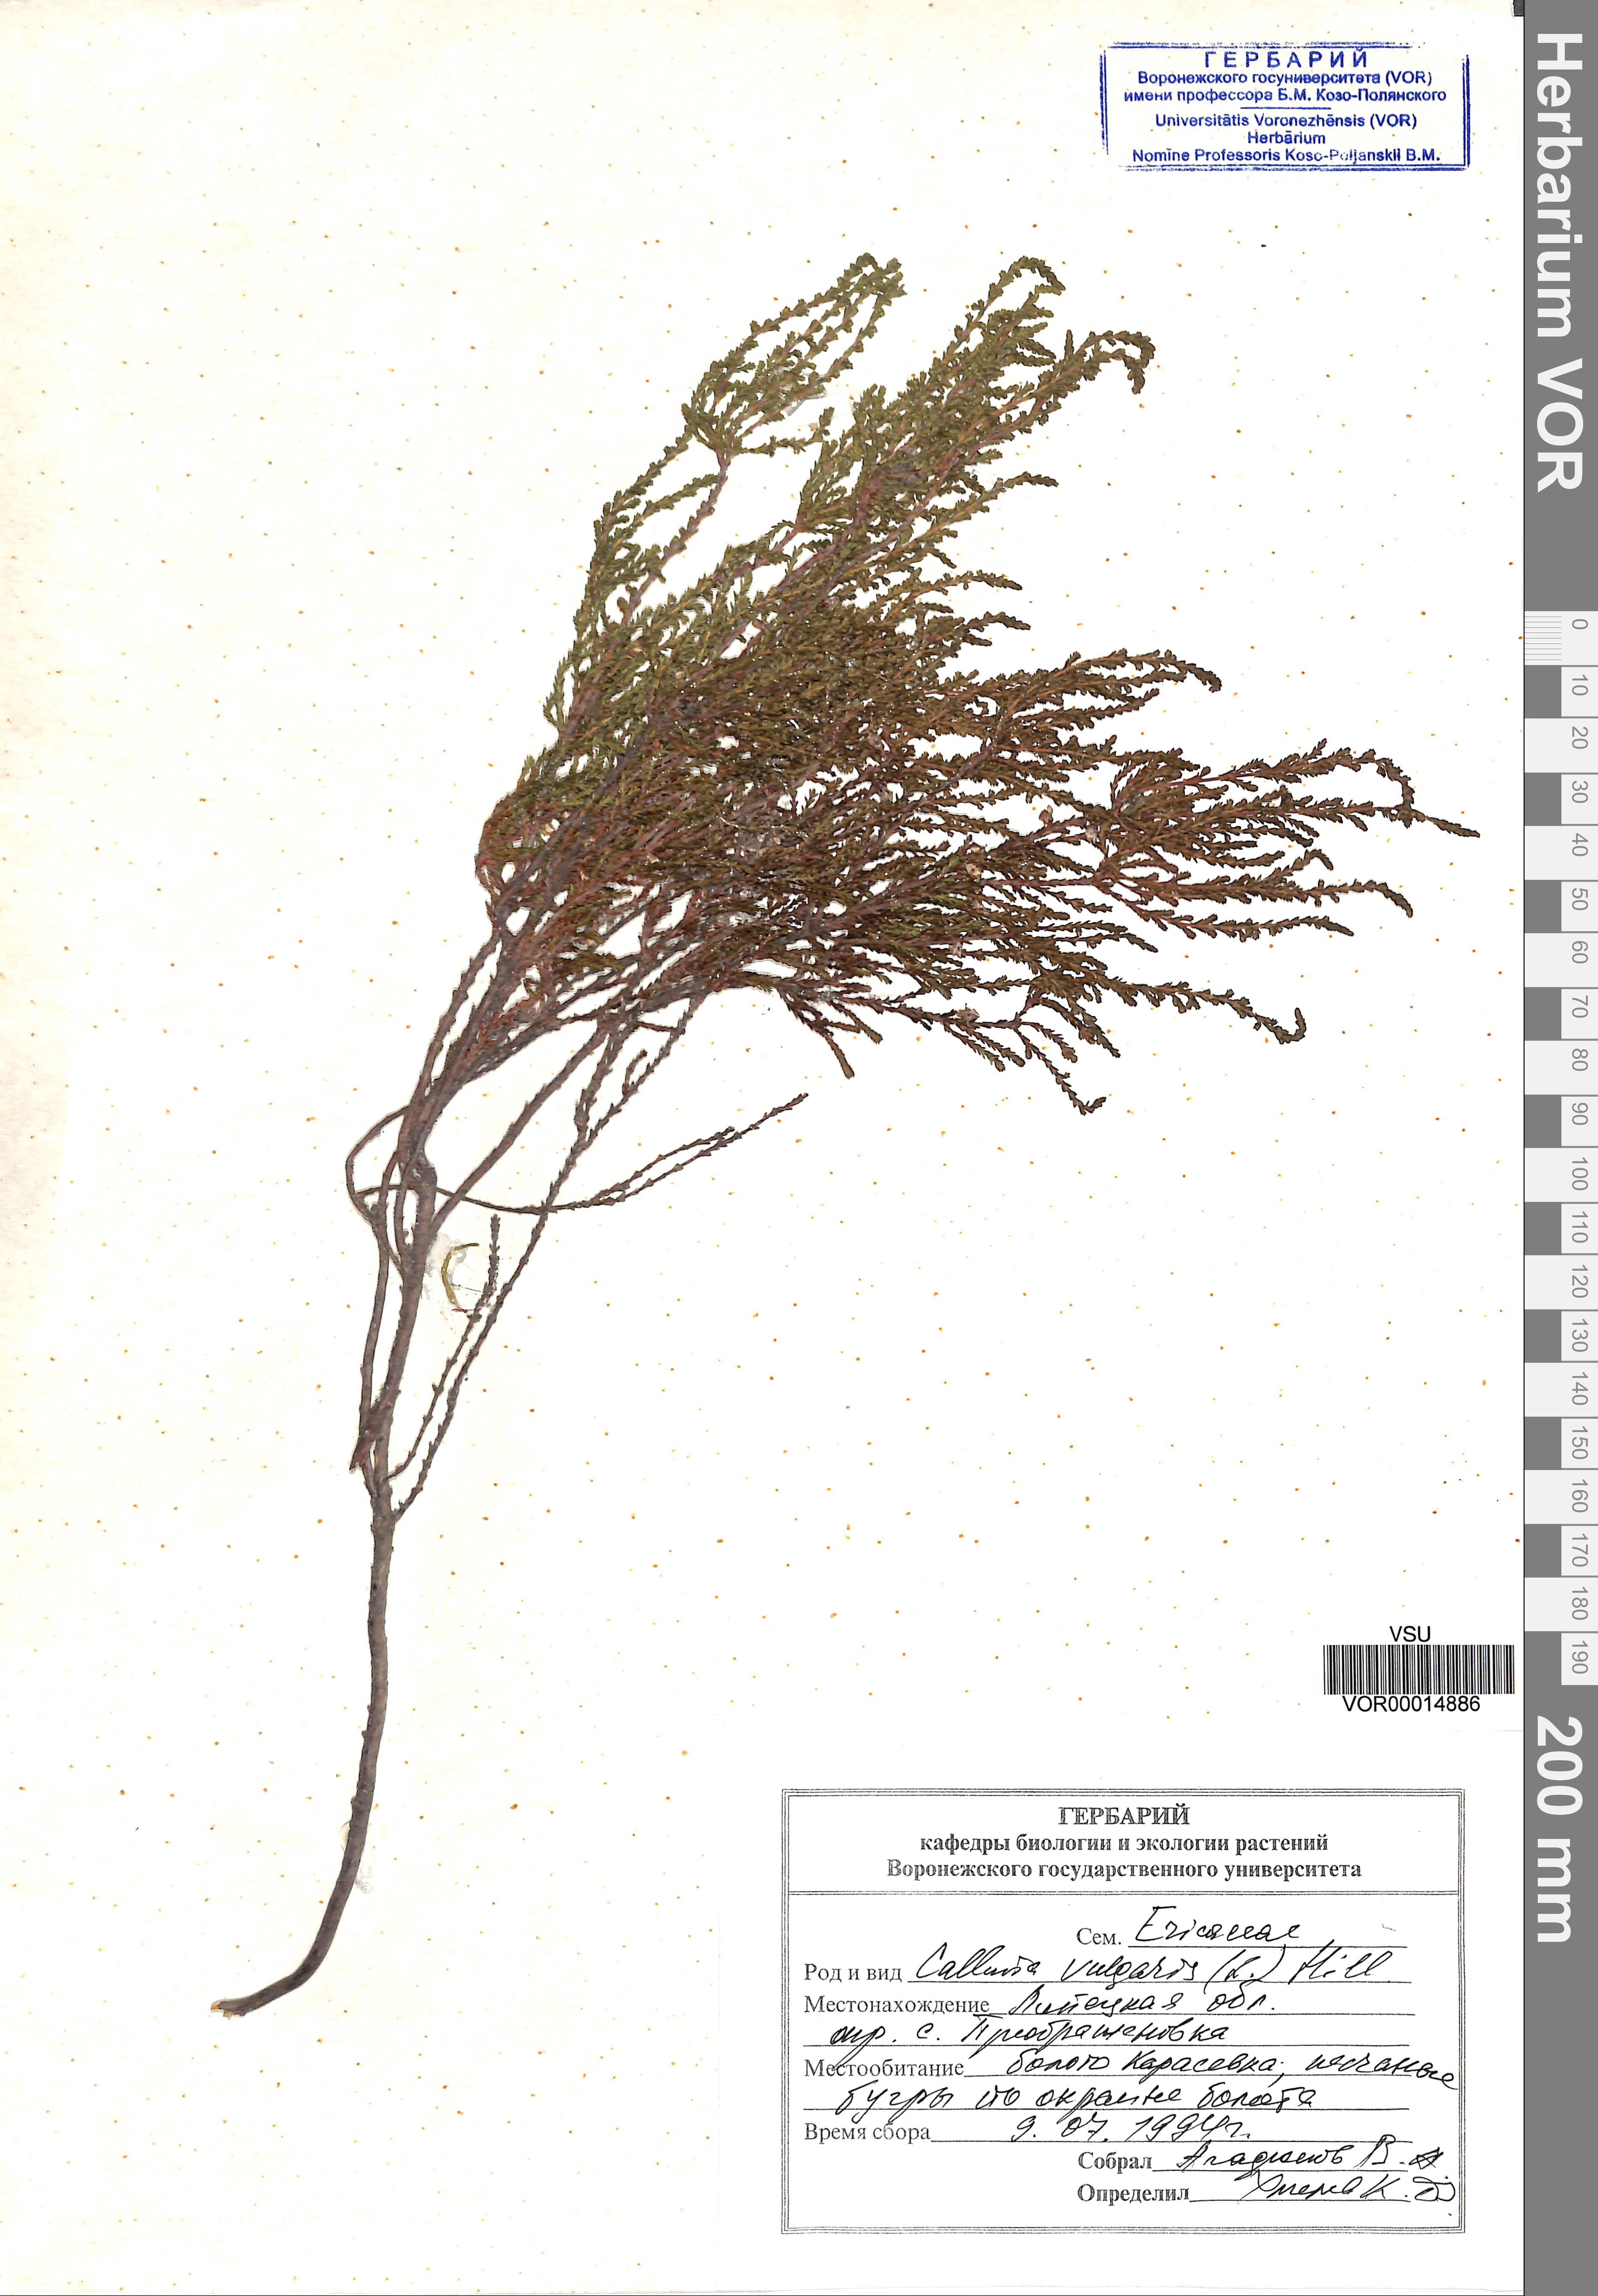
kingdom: Plantae
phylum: Tracheophyta
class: Magnoliopsida
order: Ericales
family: Ericaceae
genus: Calluna
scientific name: Calluna vulgaris
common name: Heather
